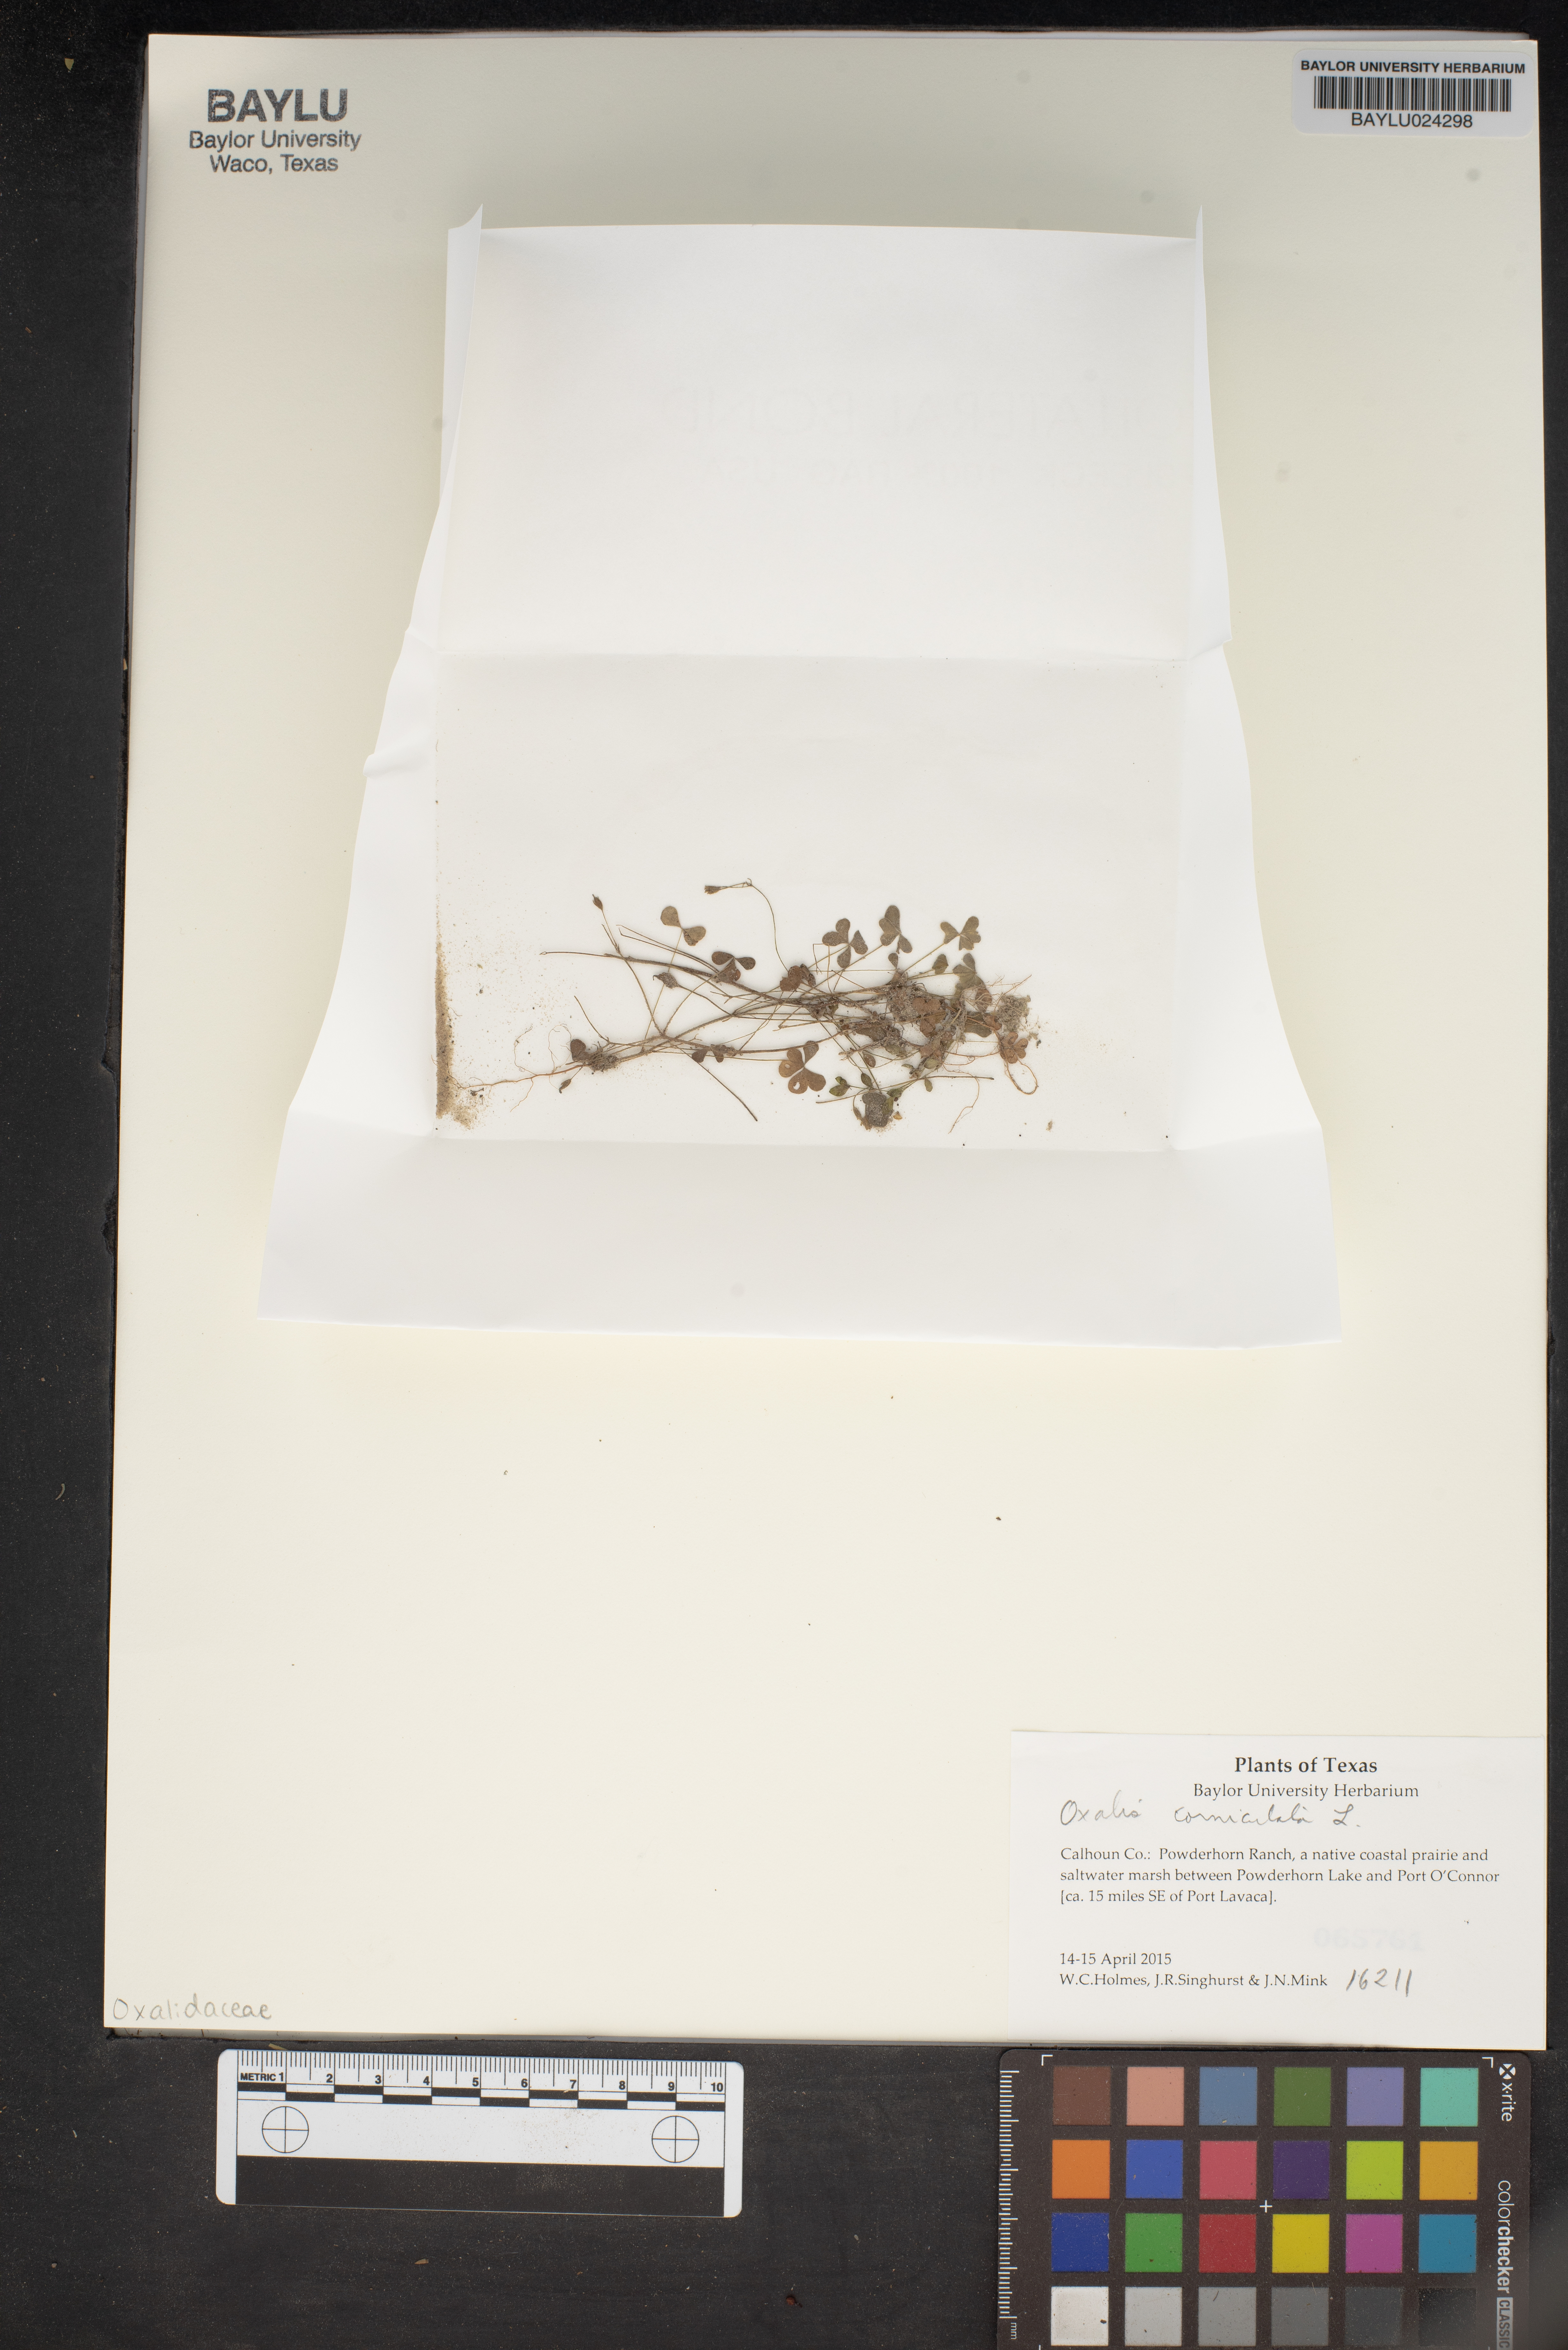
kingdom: Plantae
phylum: Tracheophyta
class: Magnoliopsida
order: Oxalidales
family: Oxalidaceae
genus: Oxalis
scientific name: Oxalis corniculata
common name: Procumbent yellow-sorrel
